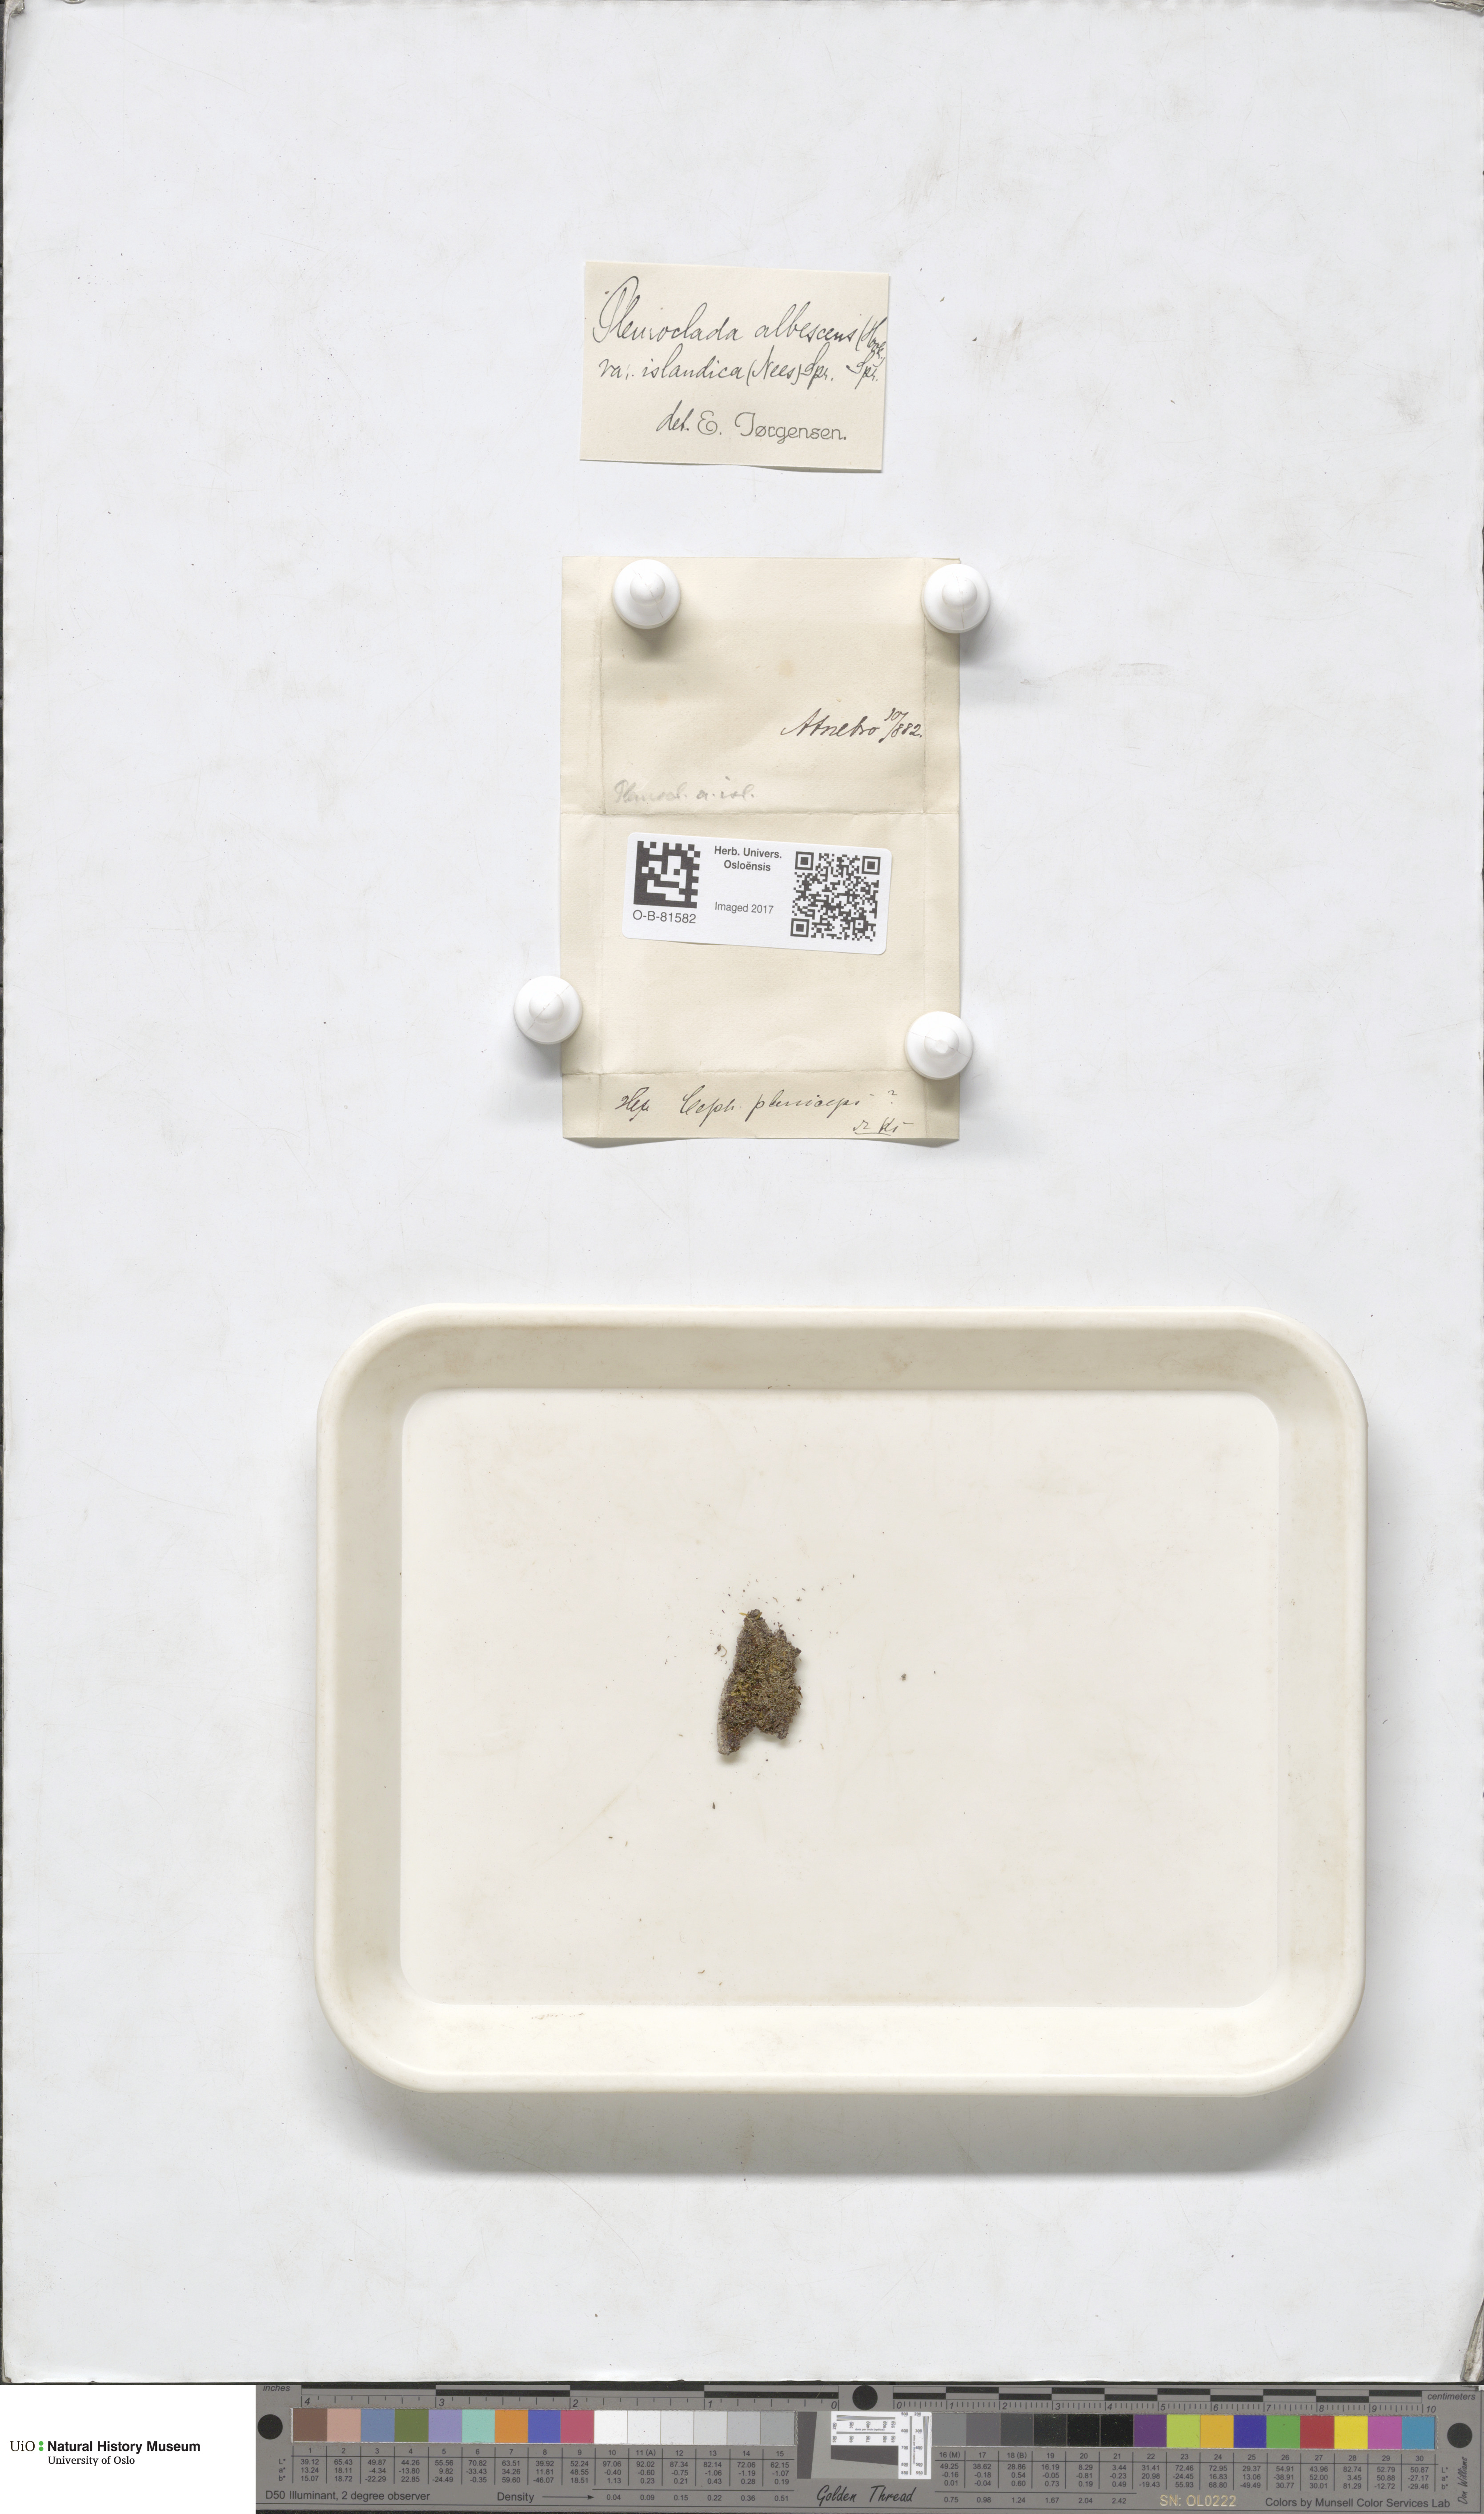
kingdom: Plantae
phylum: Marchantiophyta
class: Jungermanniopsida
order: Jungermanniales
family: Cephaloziaceae
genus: Fuscocephaloziopsis
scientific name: Fuscocephaloziopsis albescens
